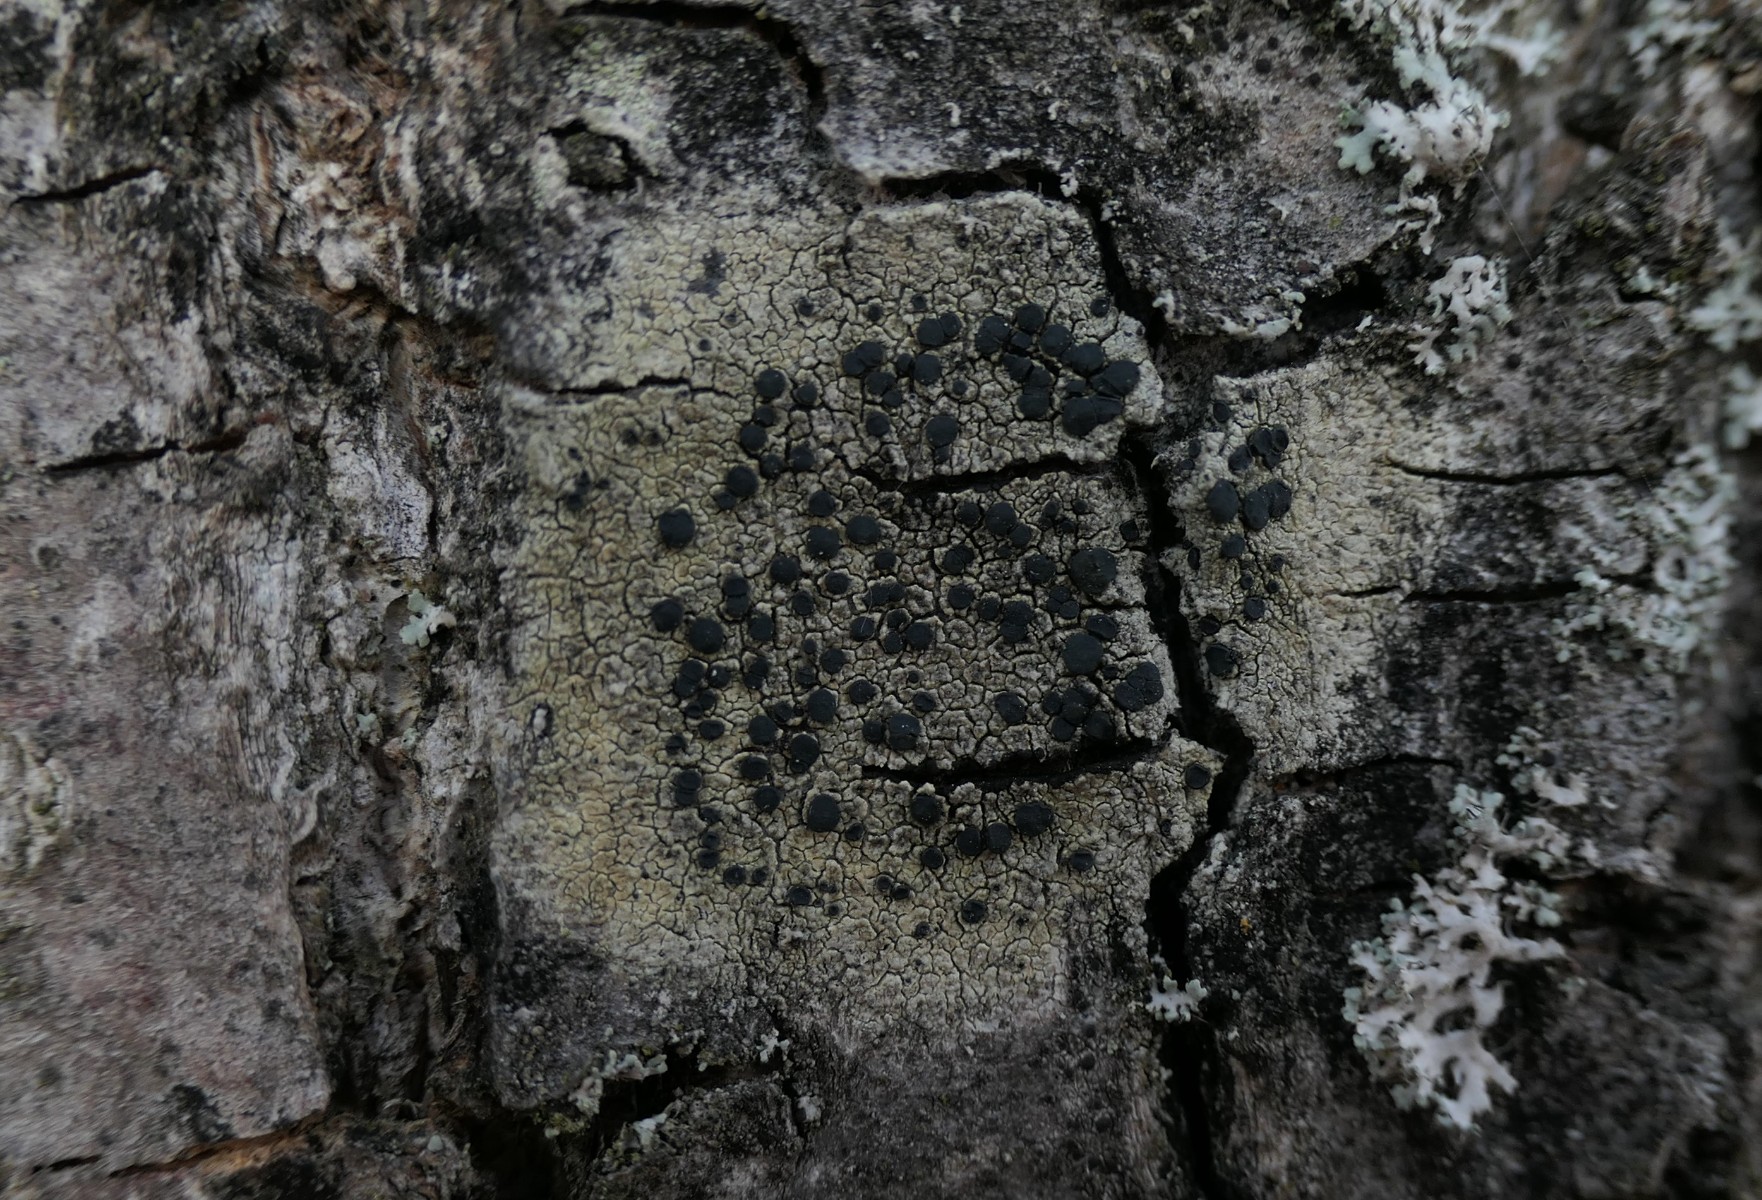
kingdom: Fungi
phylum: Ascomycota
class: Lecanoromycetes
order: Lecanorales
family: Lecanoraceae
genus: Lecidella
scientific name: Lecidella elaeochroma
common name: grågrøn skivelav
